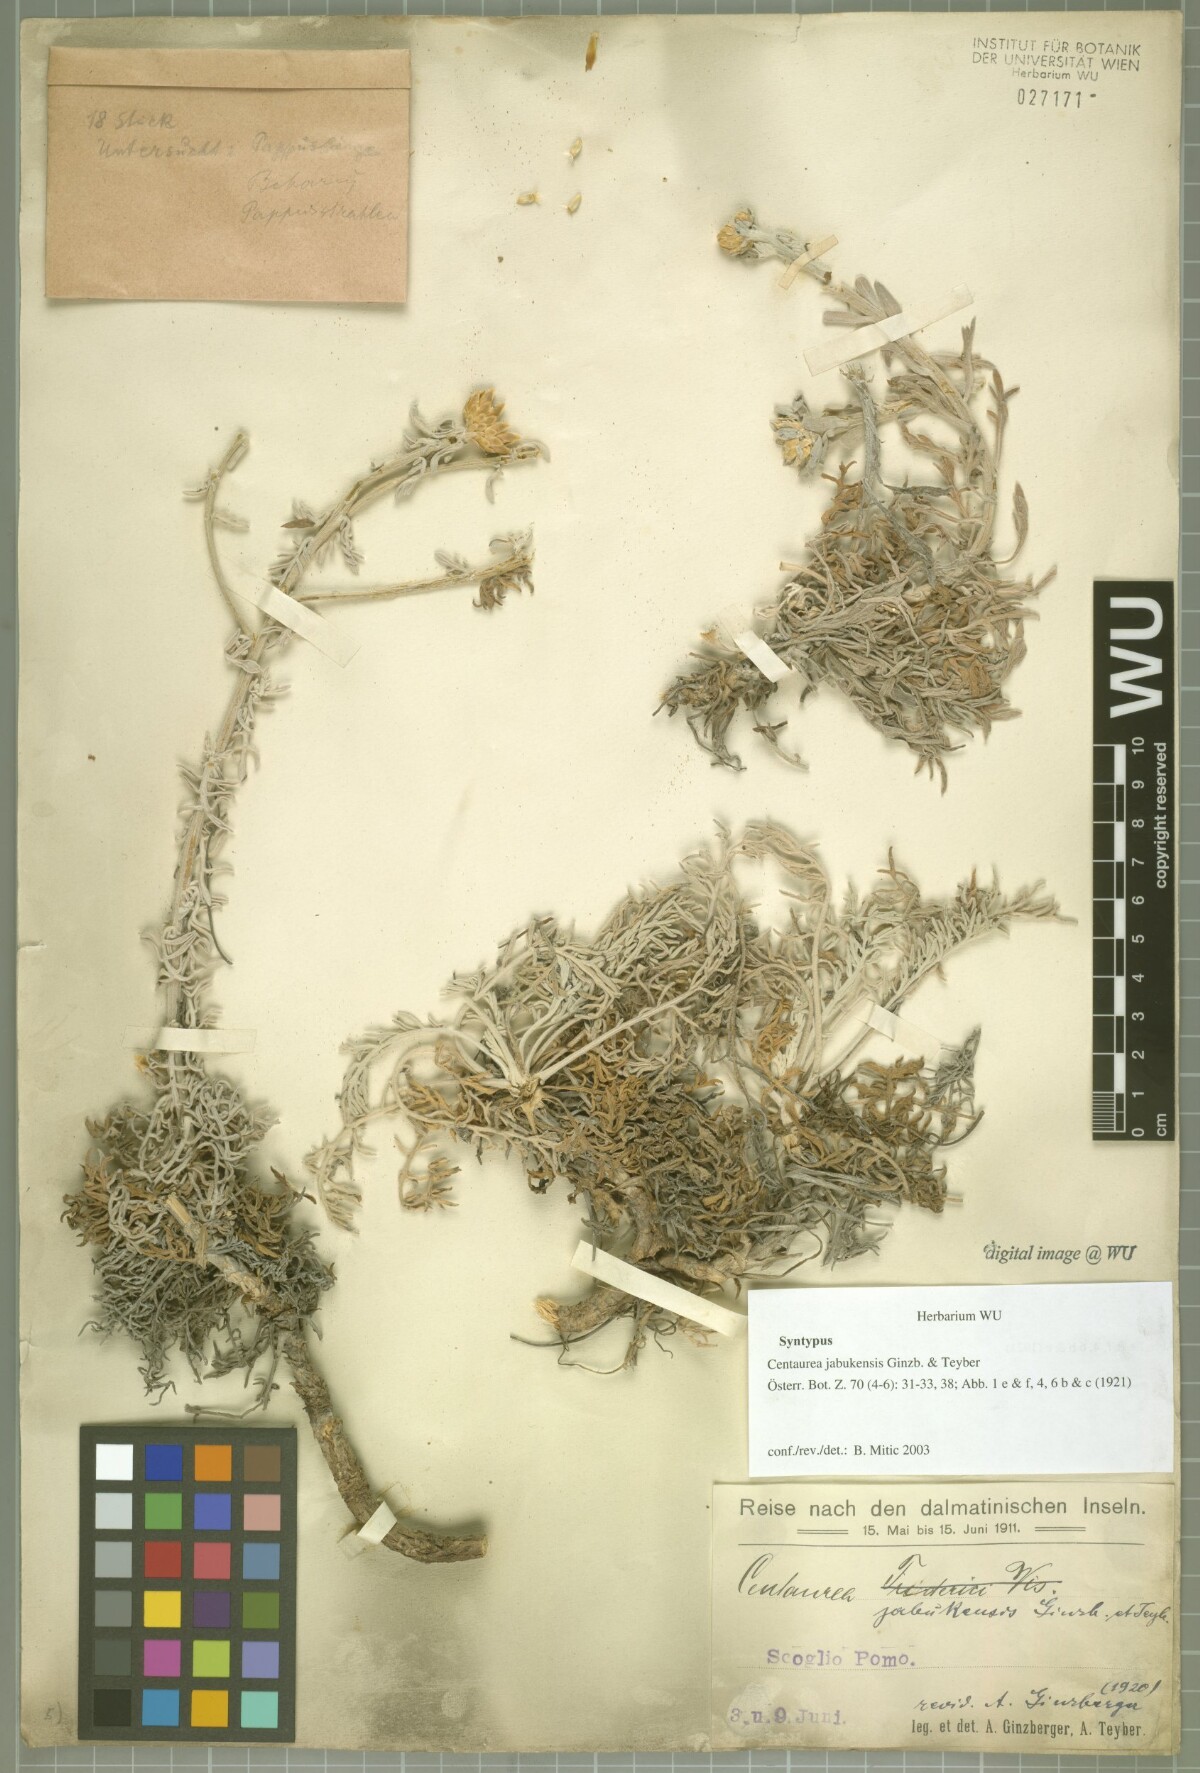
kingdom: Plantae
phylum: Tracheophyta
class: Magnoliopsida
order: Asterales
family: Asteraceae
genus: Centaurea
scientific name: Centaurea friderici
